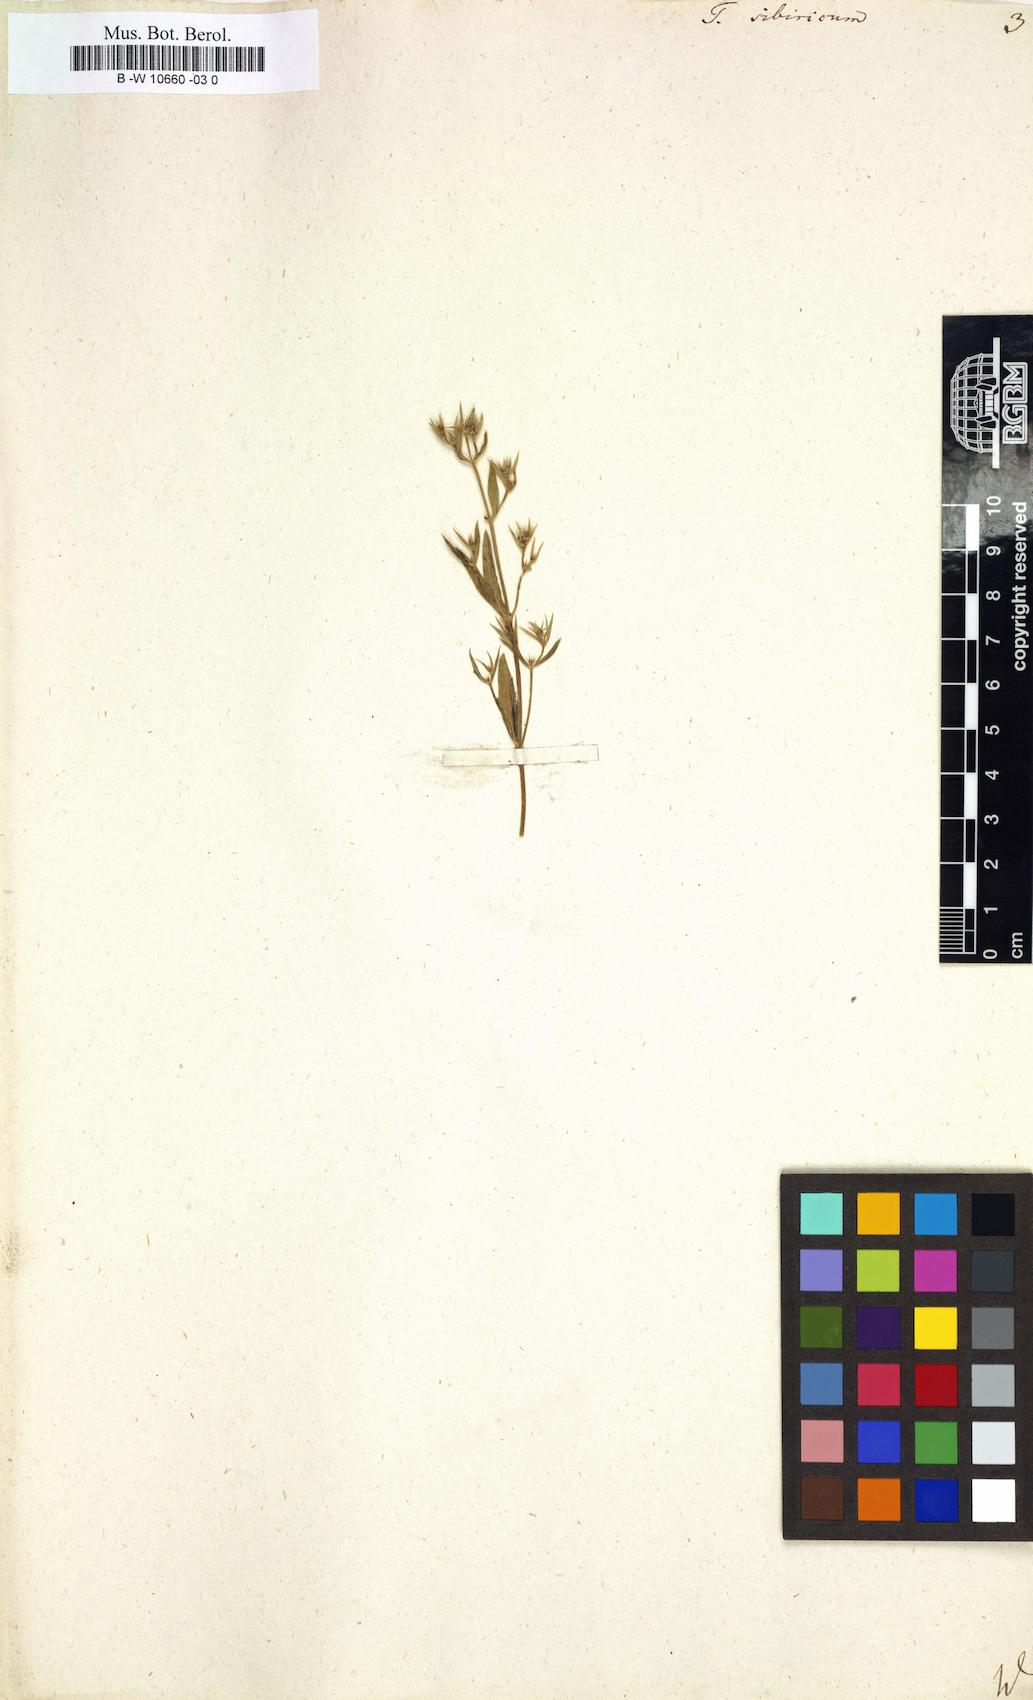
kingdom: Plantae
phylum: Tracheophyta
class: Magnoliopsida
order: Lamiales
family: Lamiaceae
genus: Teucrium
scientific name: Teucrium sibiricum
